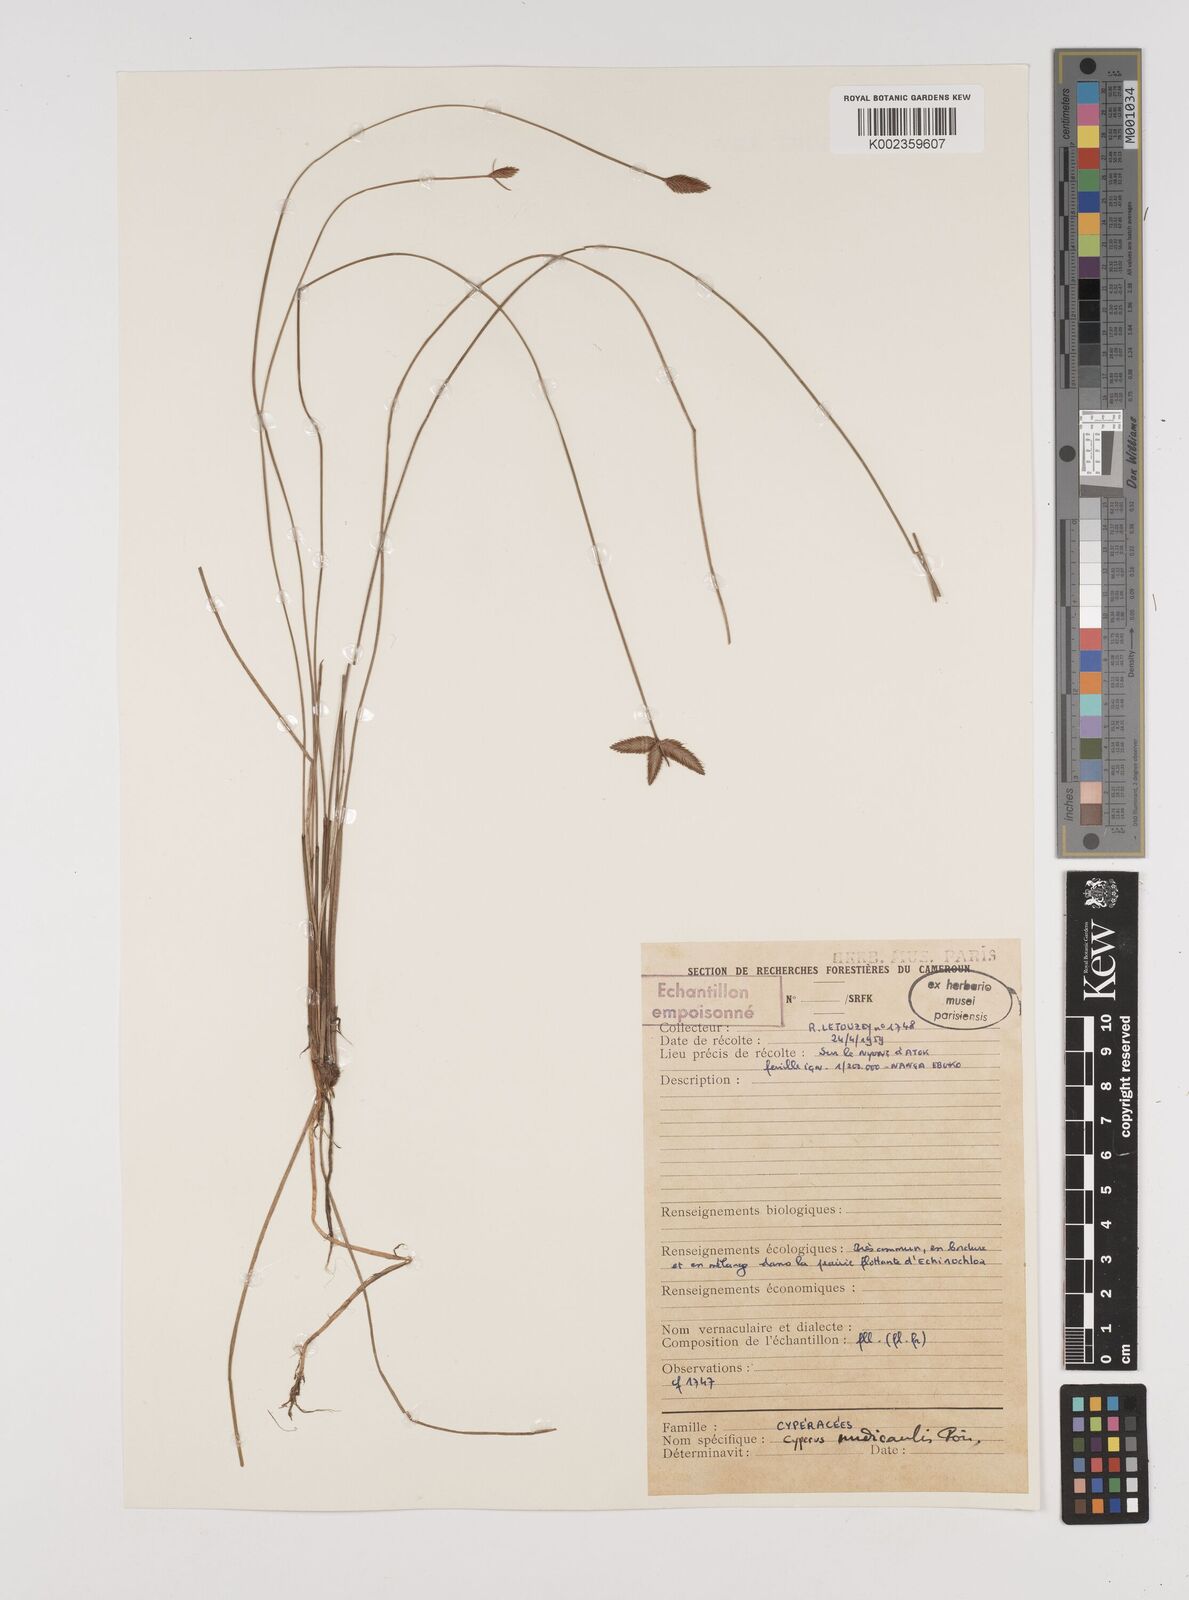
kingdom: Plantae
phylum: Tracheophyta
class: Liliopsida
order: Poales
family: Cyperaceae
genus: Cyperus
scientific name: Cyperus pectinatus
